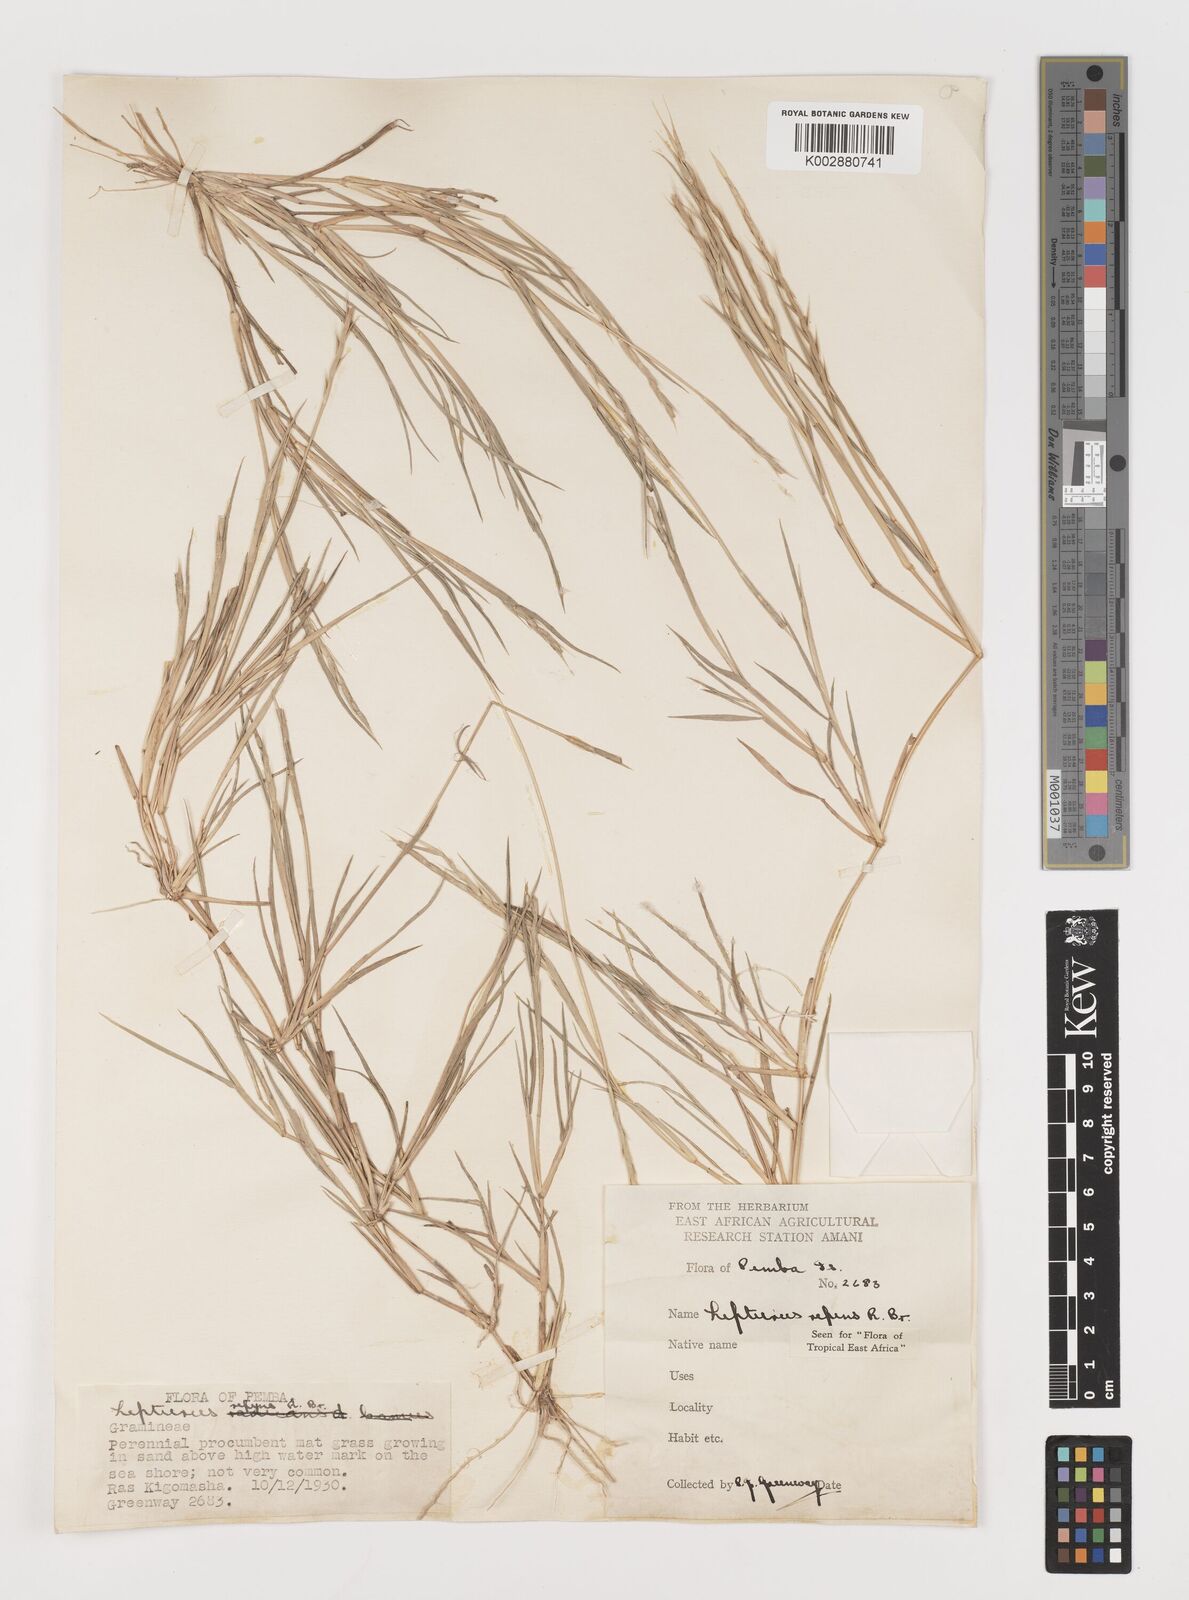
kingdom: Plantae
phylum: Tracheophyta
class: Liliopsida
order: Poales
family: Poaceae
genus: Lepturus
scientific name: Lepturus repens
